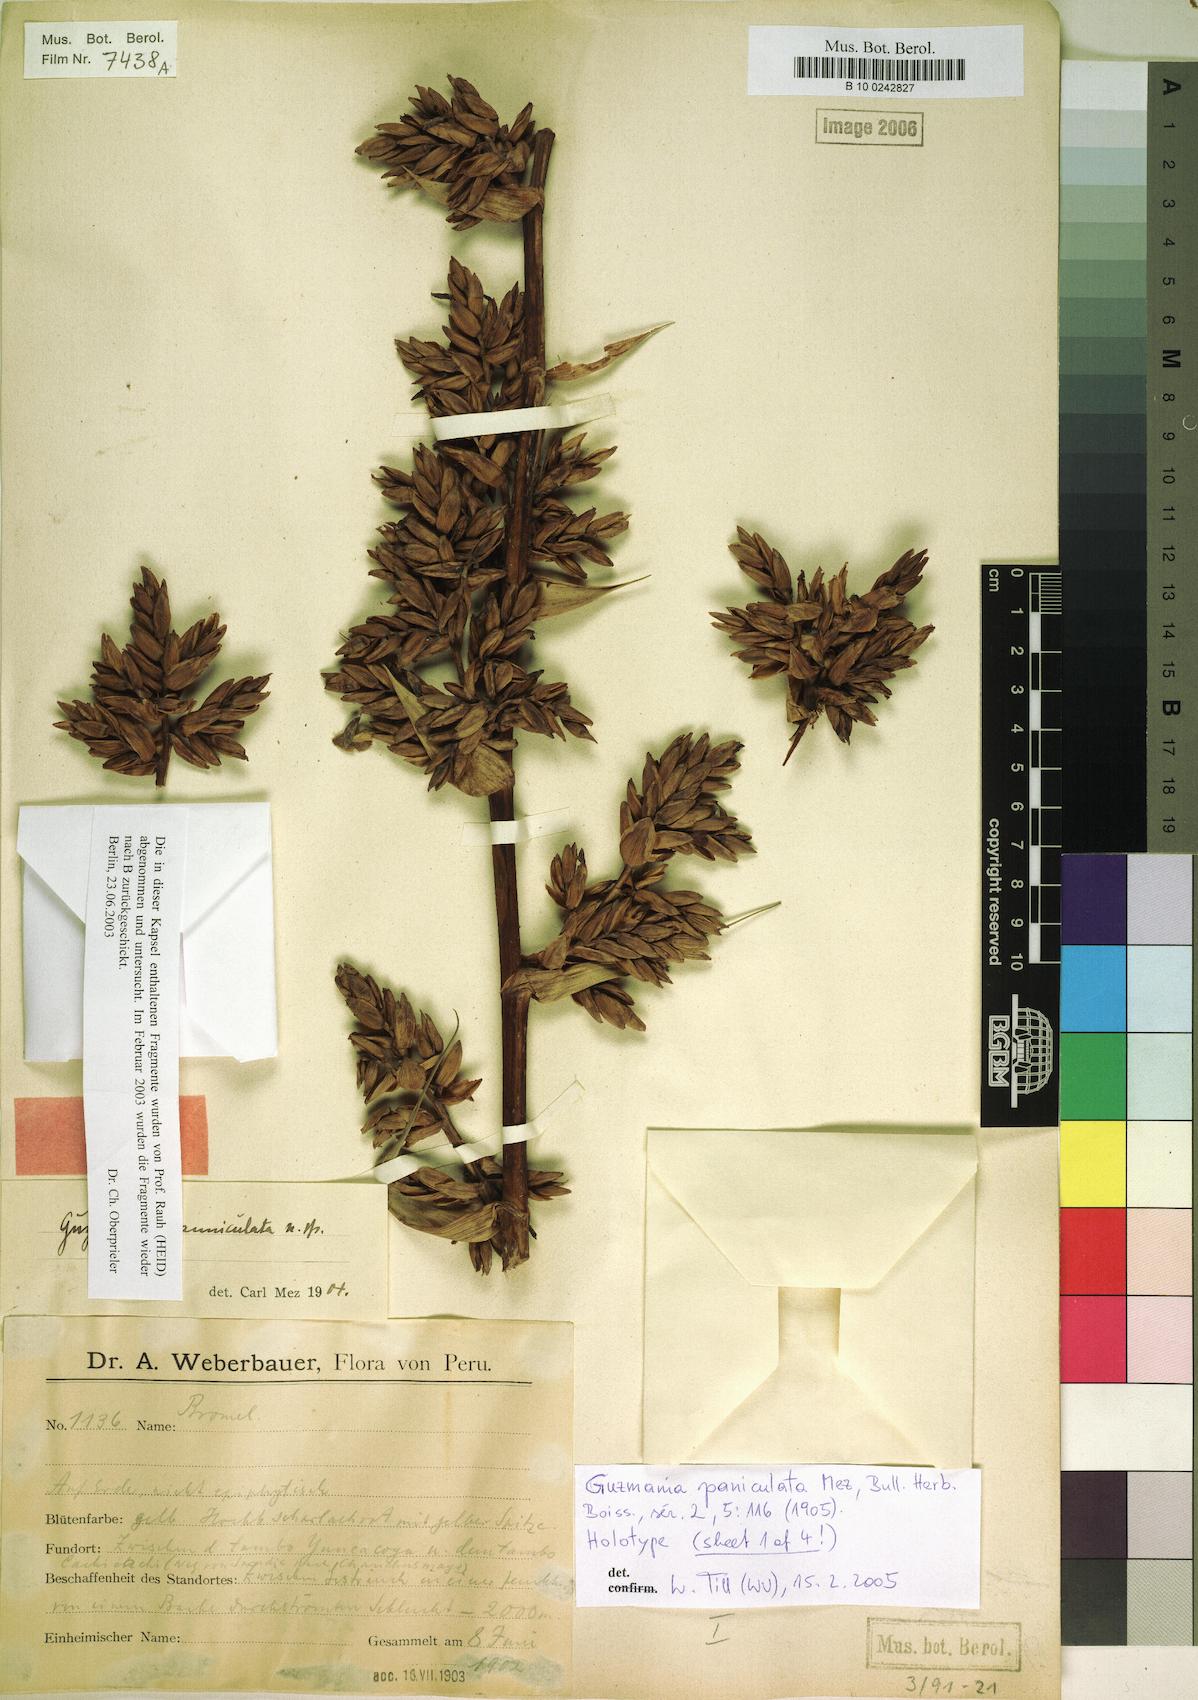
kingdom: Plantae
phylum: Tracheophyta
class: Liliopsida
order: Poales
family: Bromeliaceae
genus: Guzmania
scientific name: Guzmania paniculata
